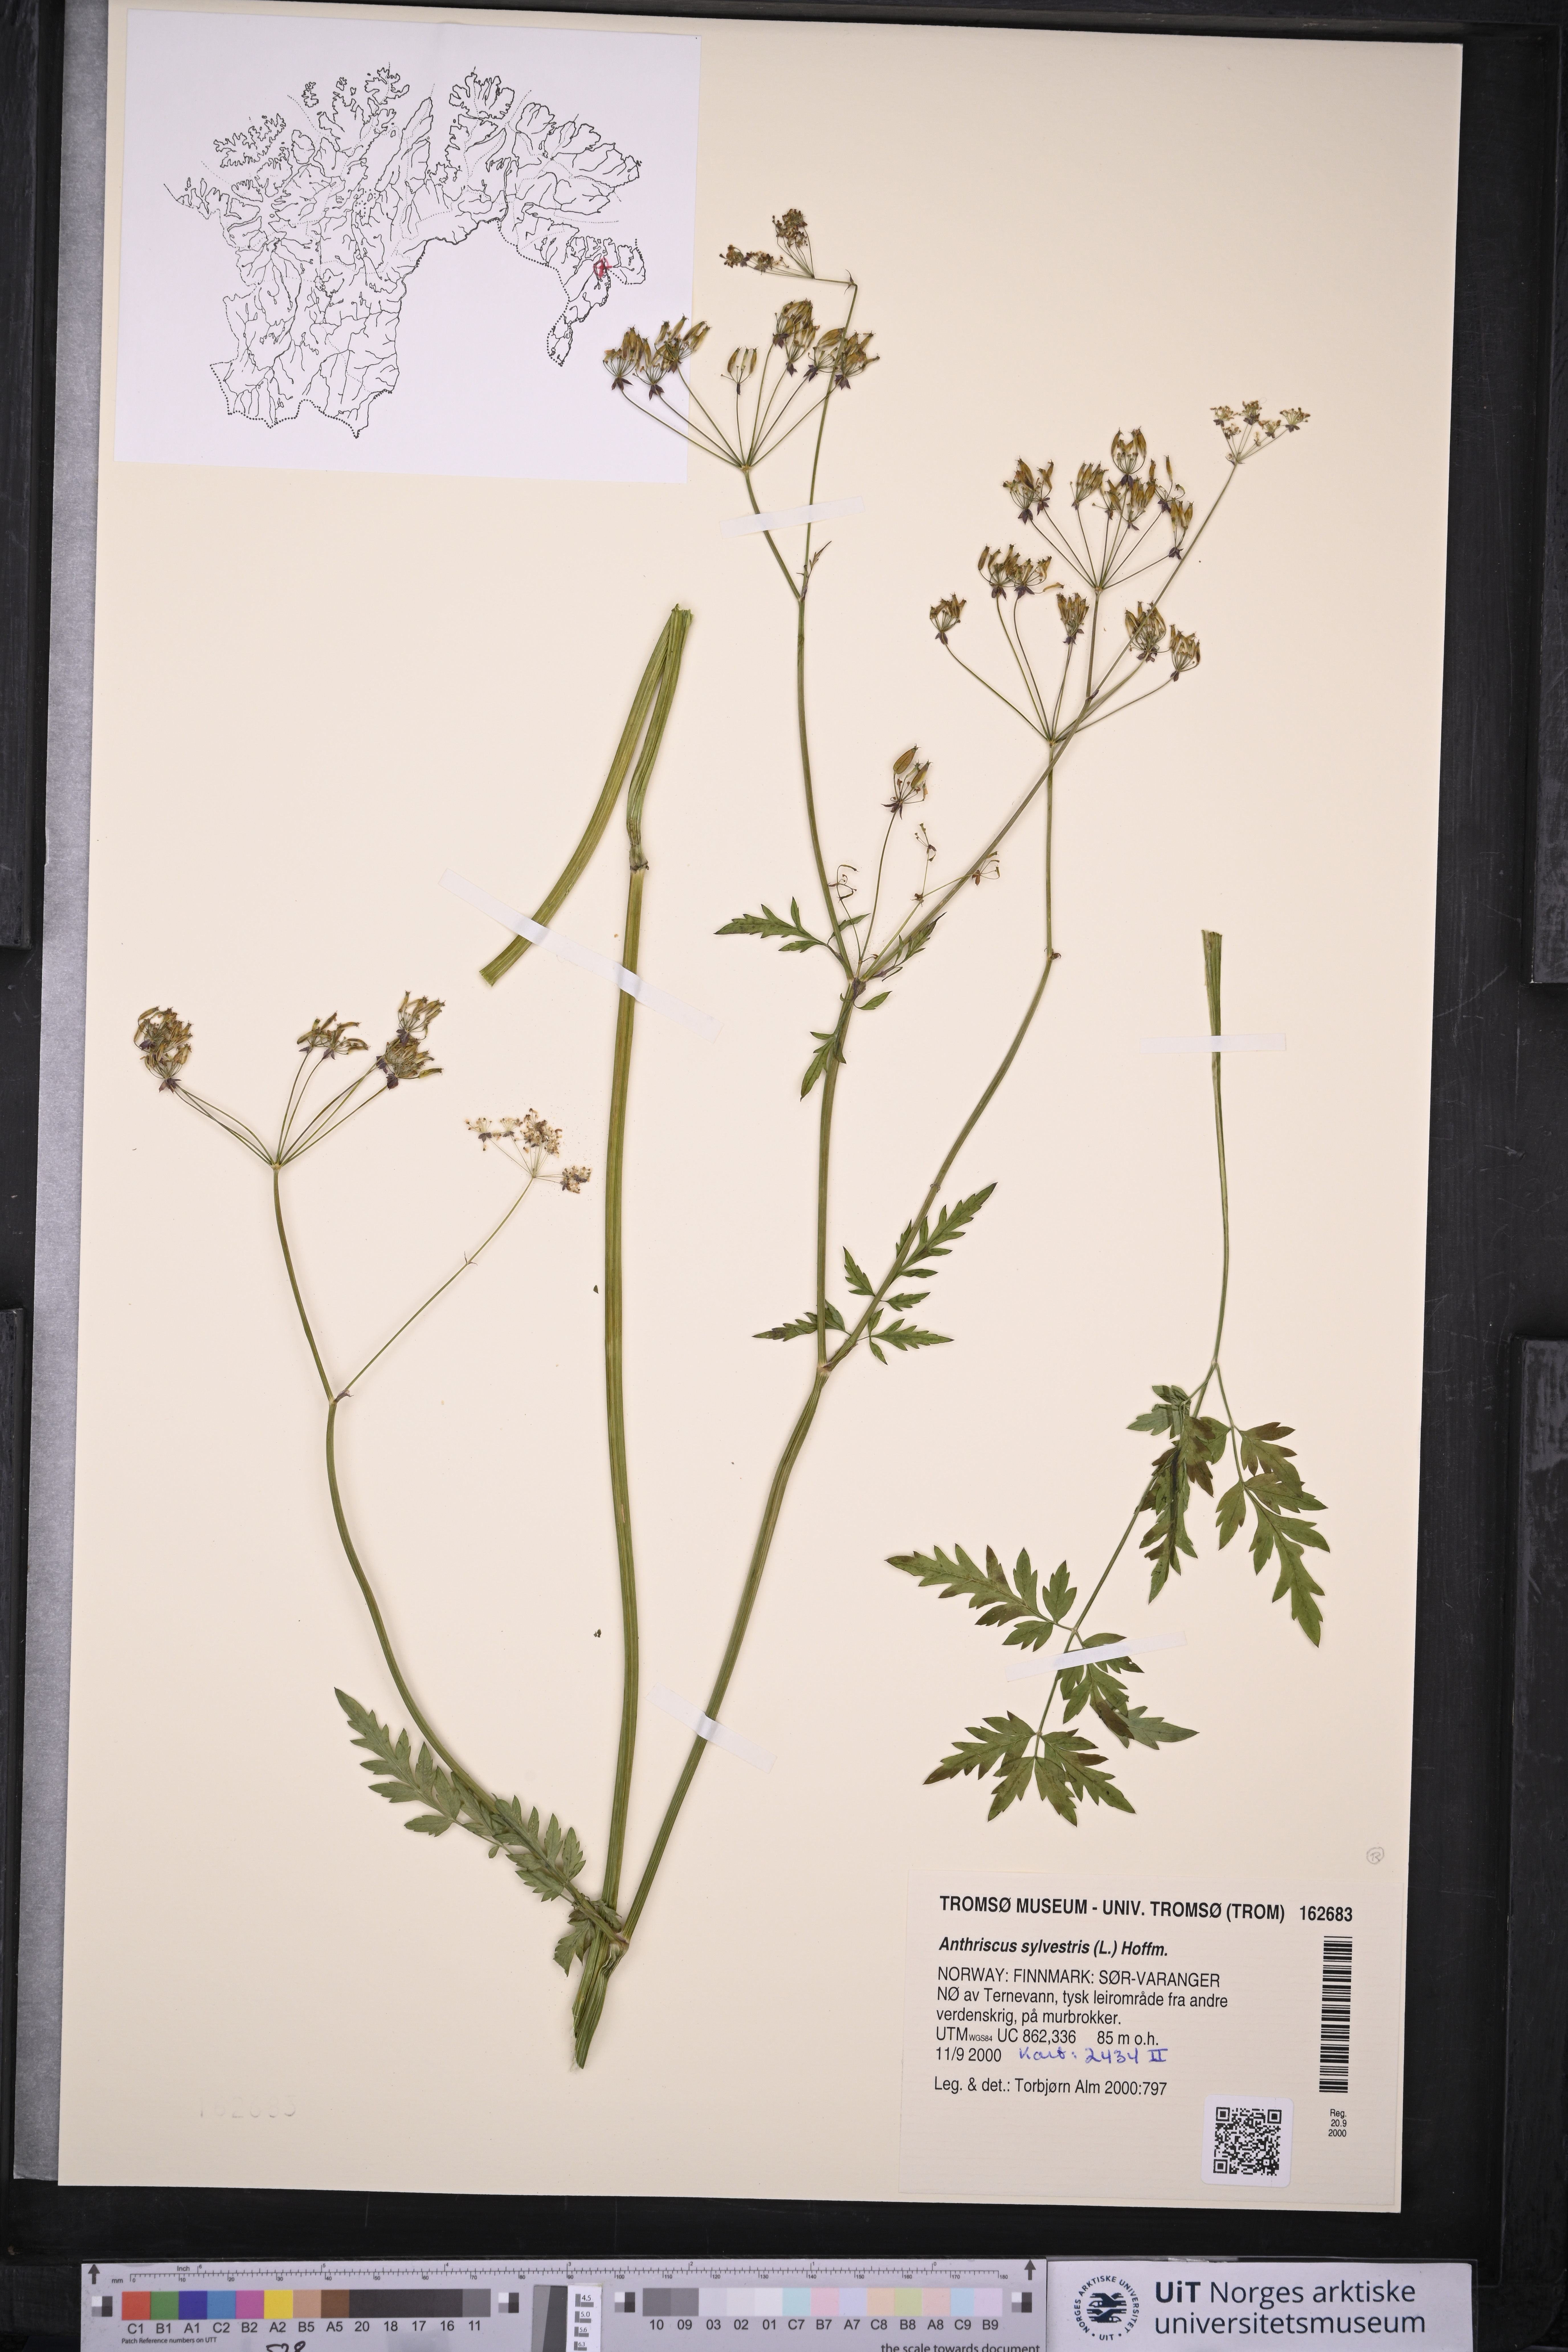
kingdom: Plantae
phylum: Tracheophyta
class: Magnoliopsida
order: Apiales
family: Apiaceae
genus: Anthriscus
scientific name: Anthriscus sylvestris
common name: Cow parsley
